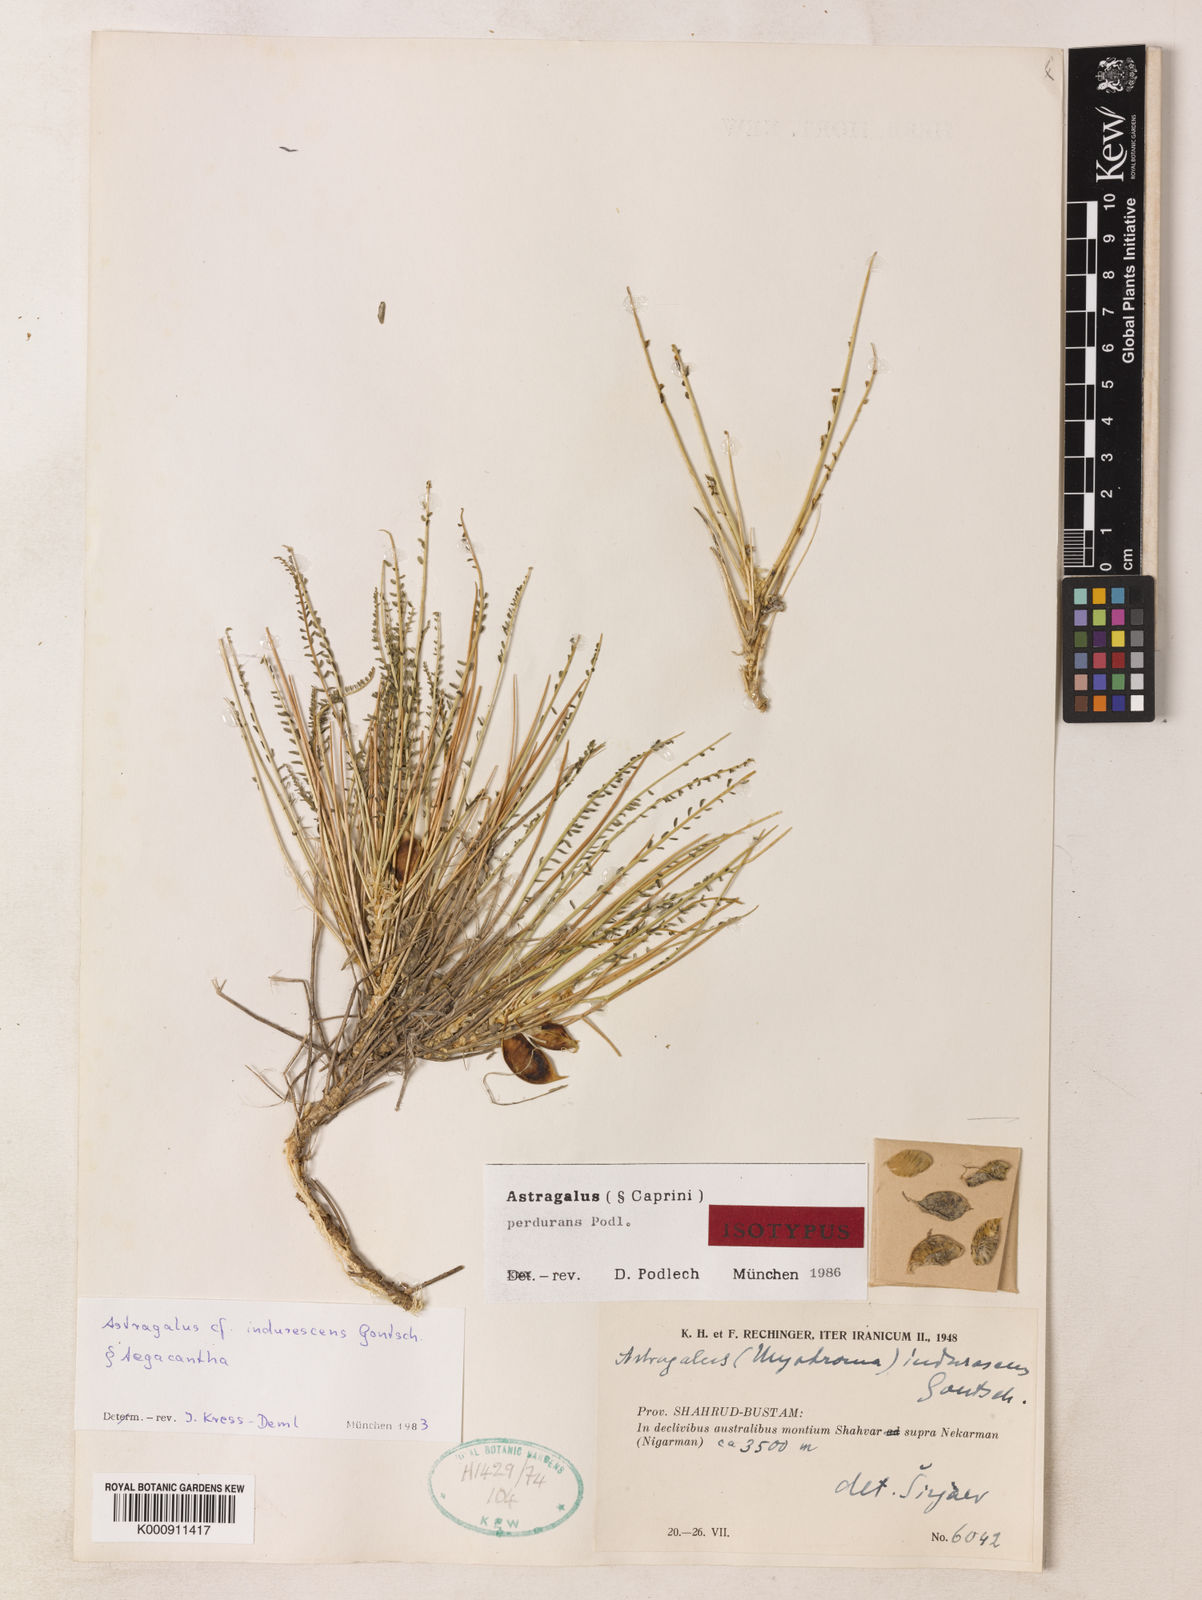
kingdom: Plantae
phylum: Tracheophyta
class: Magnoliopsida
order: Fabales
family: Fabaceae
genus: Astragalus
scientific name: Astragalus perdurans
